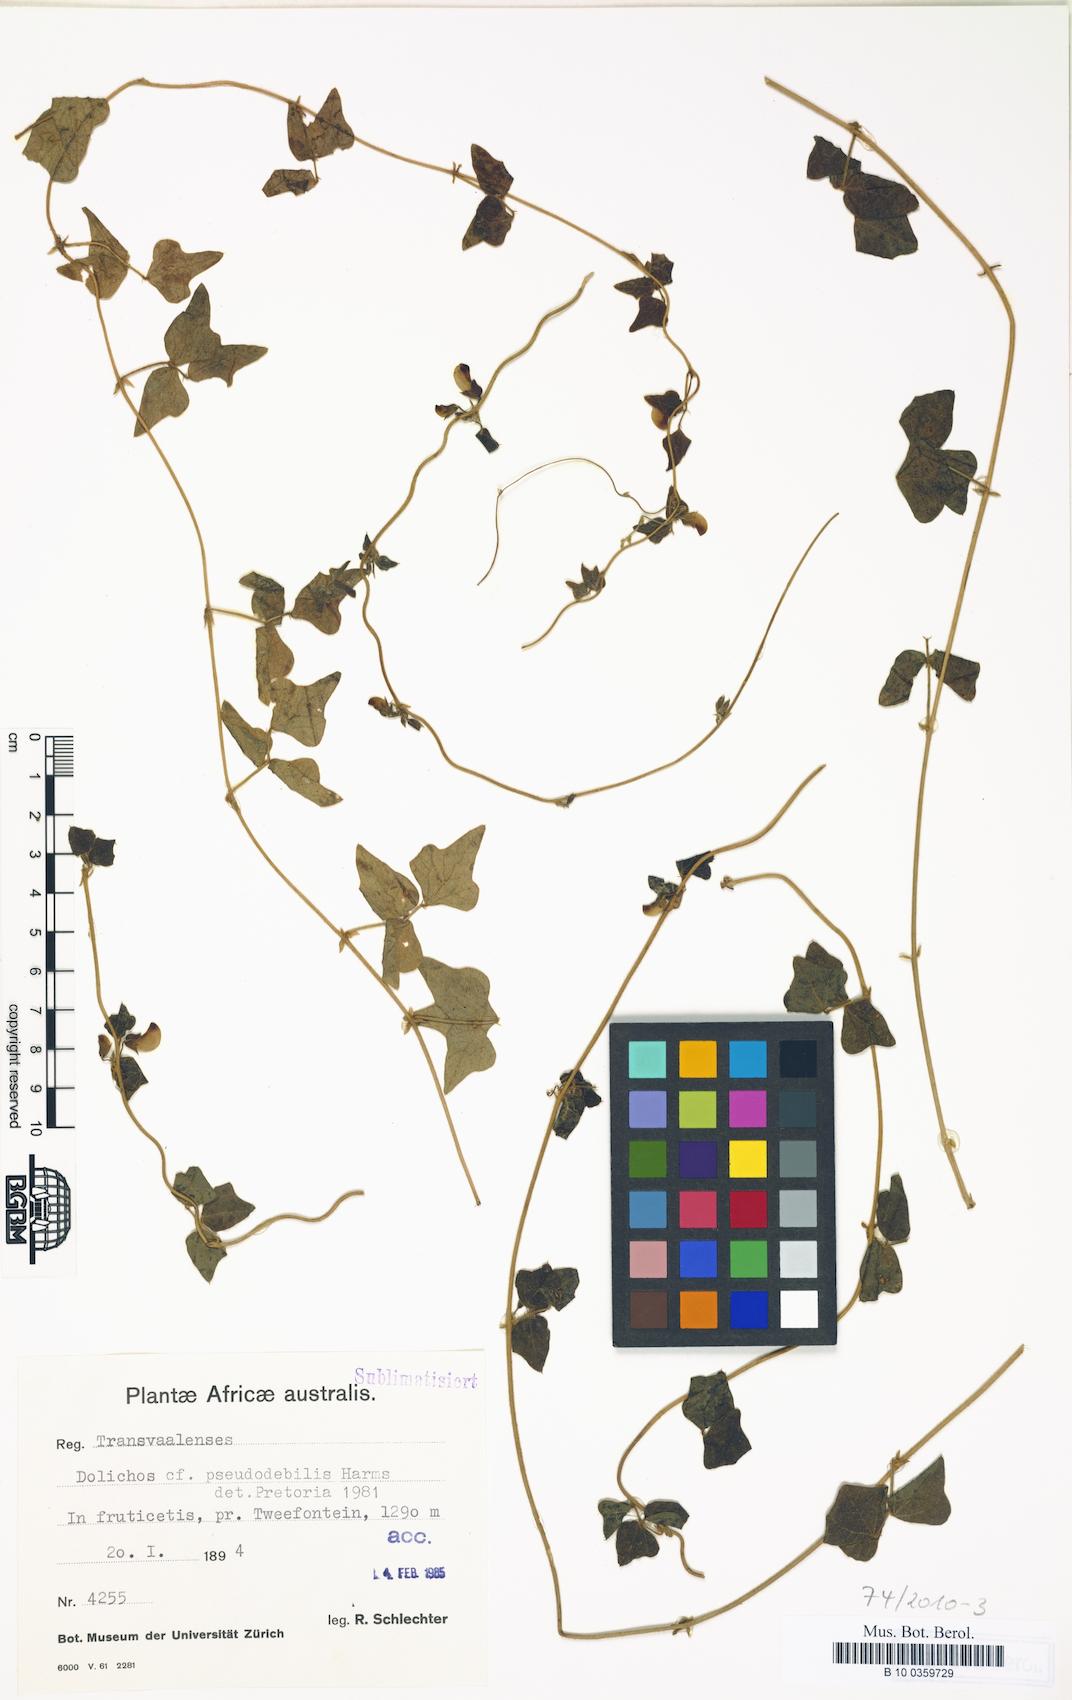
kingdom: Plantae
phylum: Tracheophyta
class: Magnoliopsida
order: Fabales
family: Fabaceae
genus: Dolichos
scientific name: Dolichos pseudodebilis
